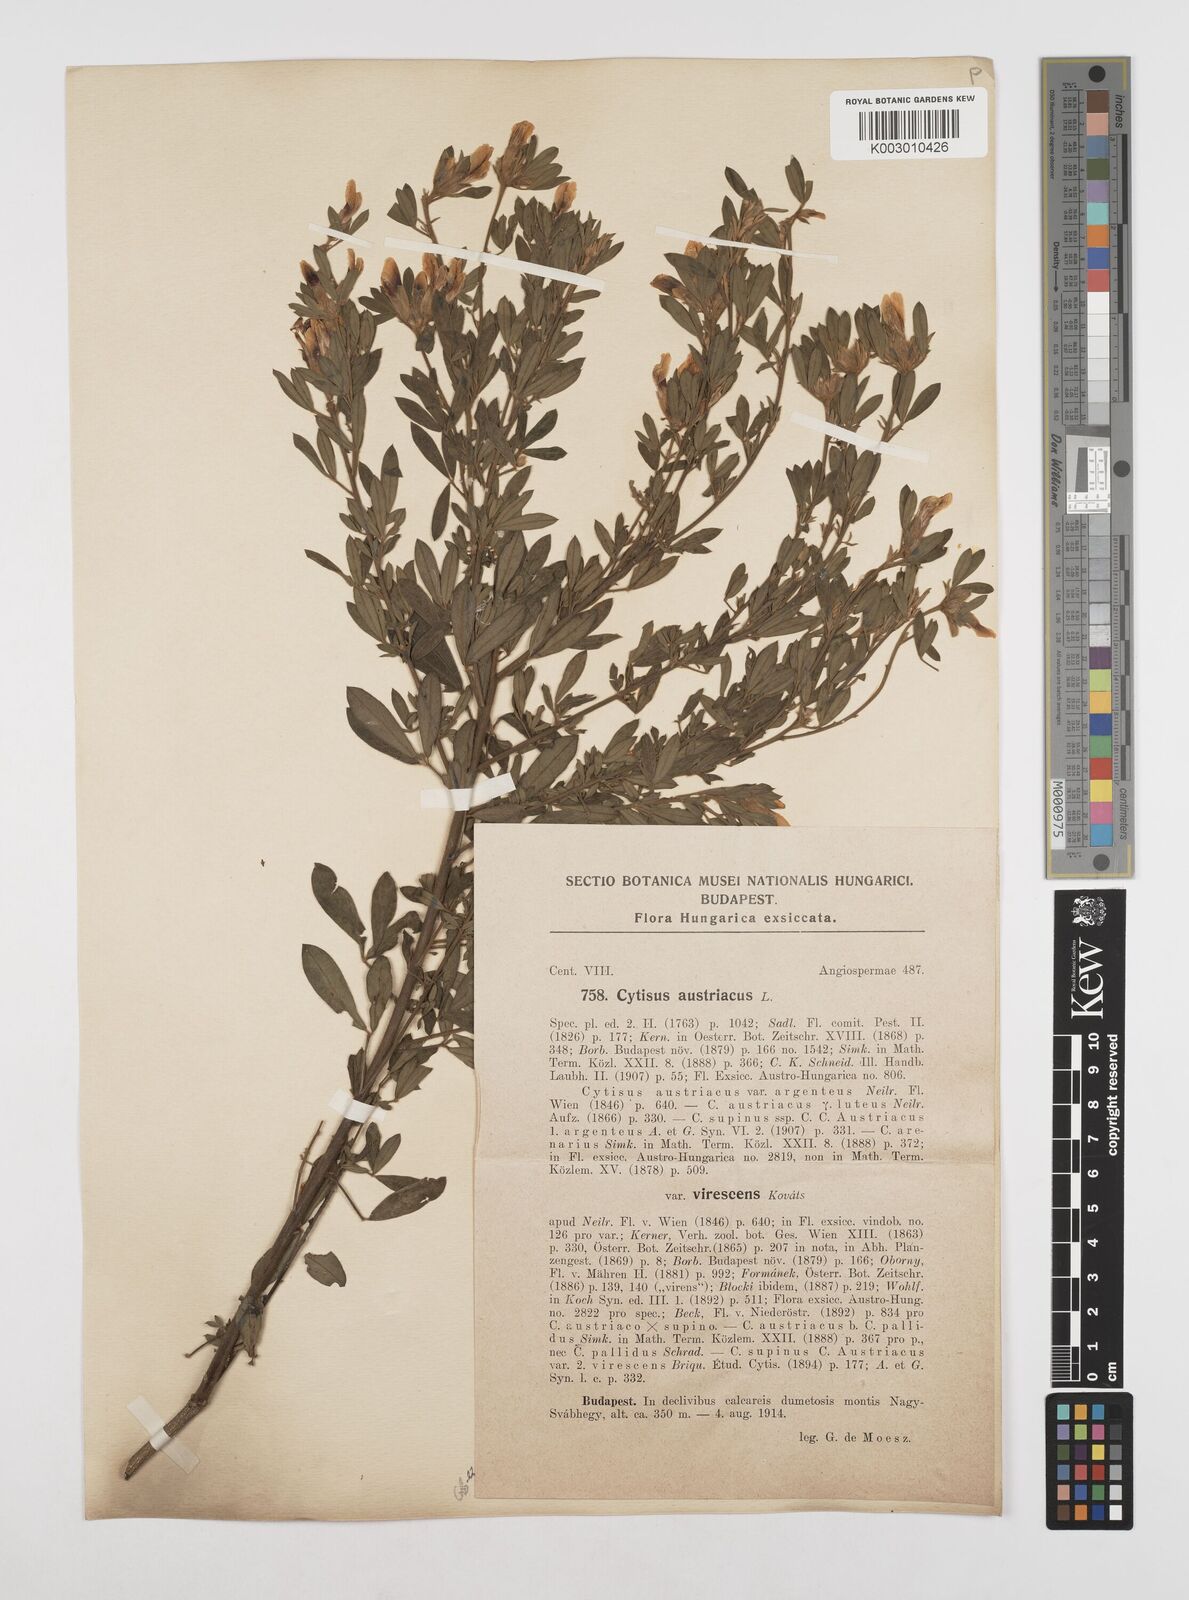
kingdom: Plantae
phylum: Tracheophyta
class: Magnoliopsida
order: Fabales
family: Fabaceae
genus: Chamaecytisus
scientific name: Chamaecytisus austriacus
